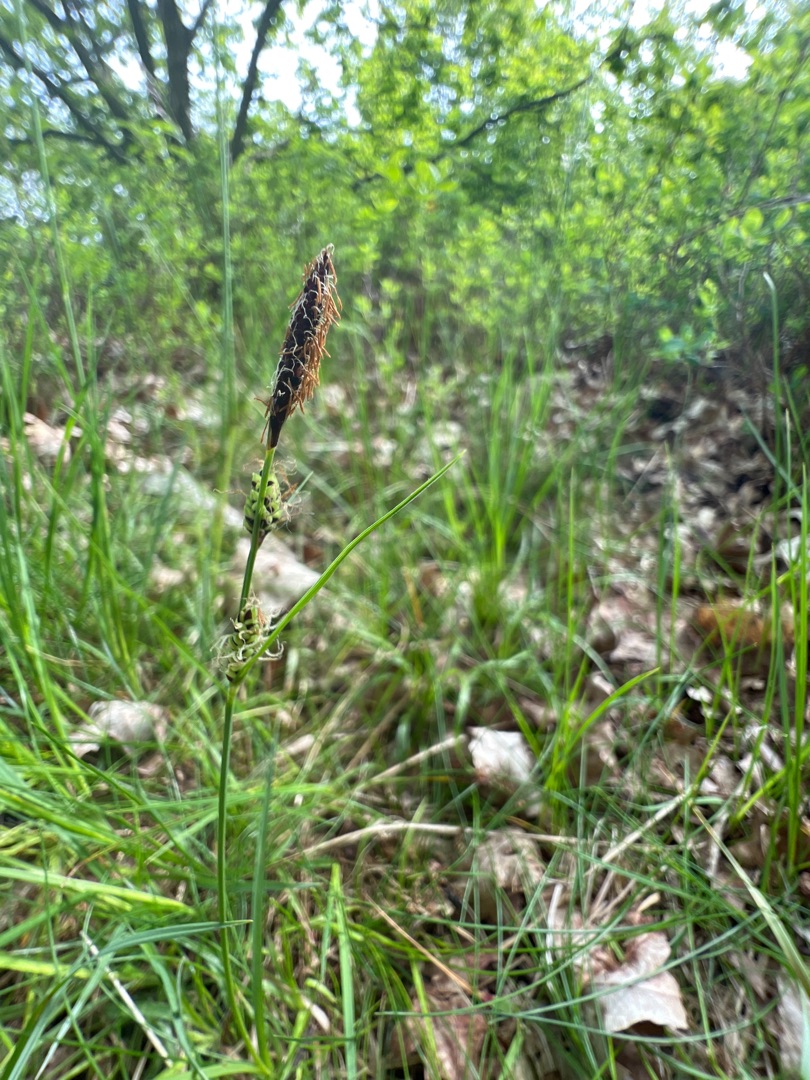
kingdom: Plantae
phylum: Tracheophyta
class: Liliopsida
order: Poales
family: Cyperaceae
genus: Carex
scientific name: Carex nigra
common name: Almindelig star
